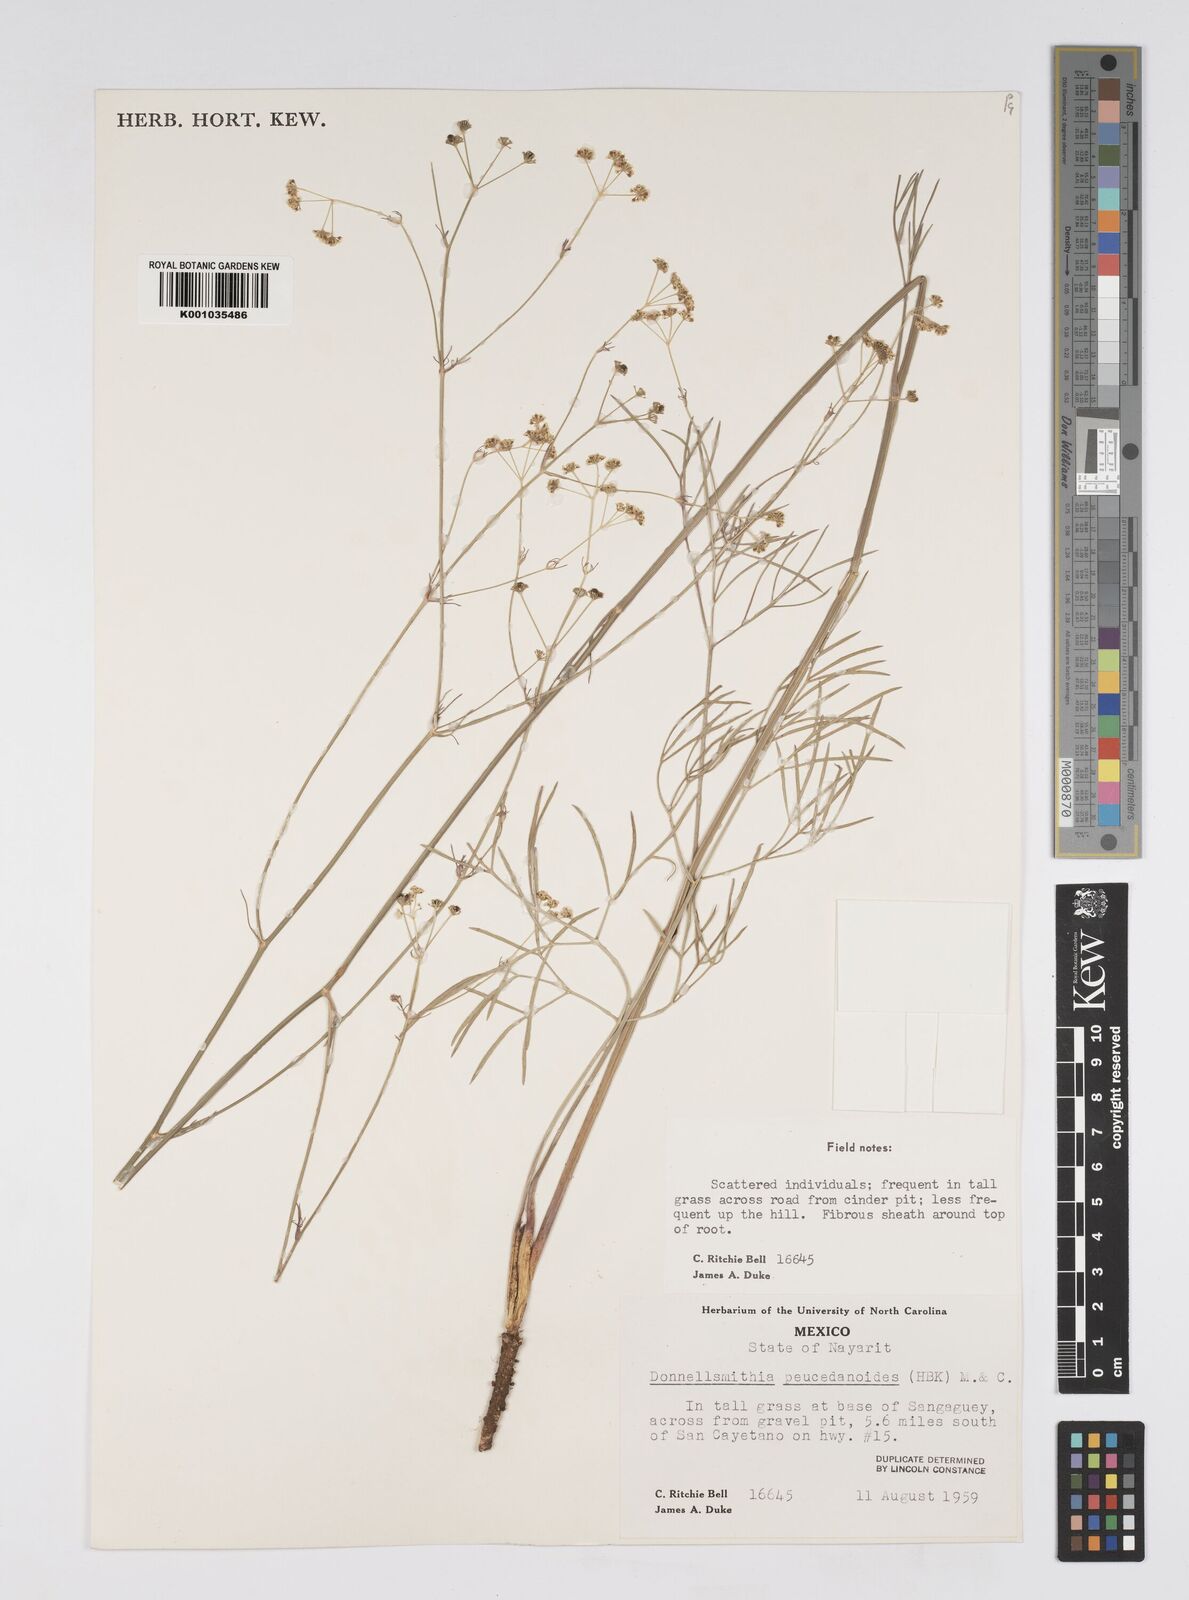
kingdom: Plantae
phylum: Tracheophyta
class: Magnoliopsida
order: Apiales
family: Apiaceae
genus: Donnellsmithia
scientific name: Donnellsmithia juncea
